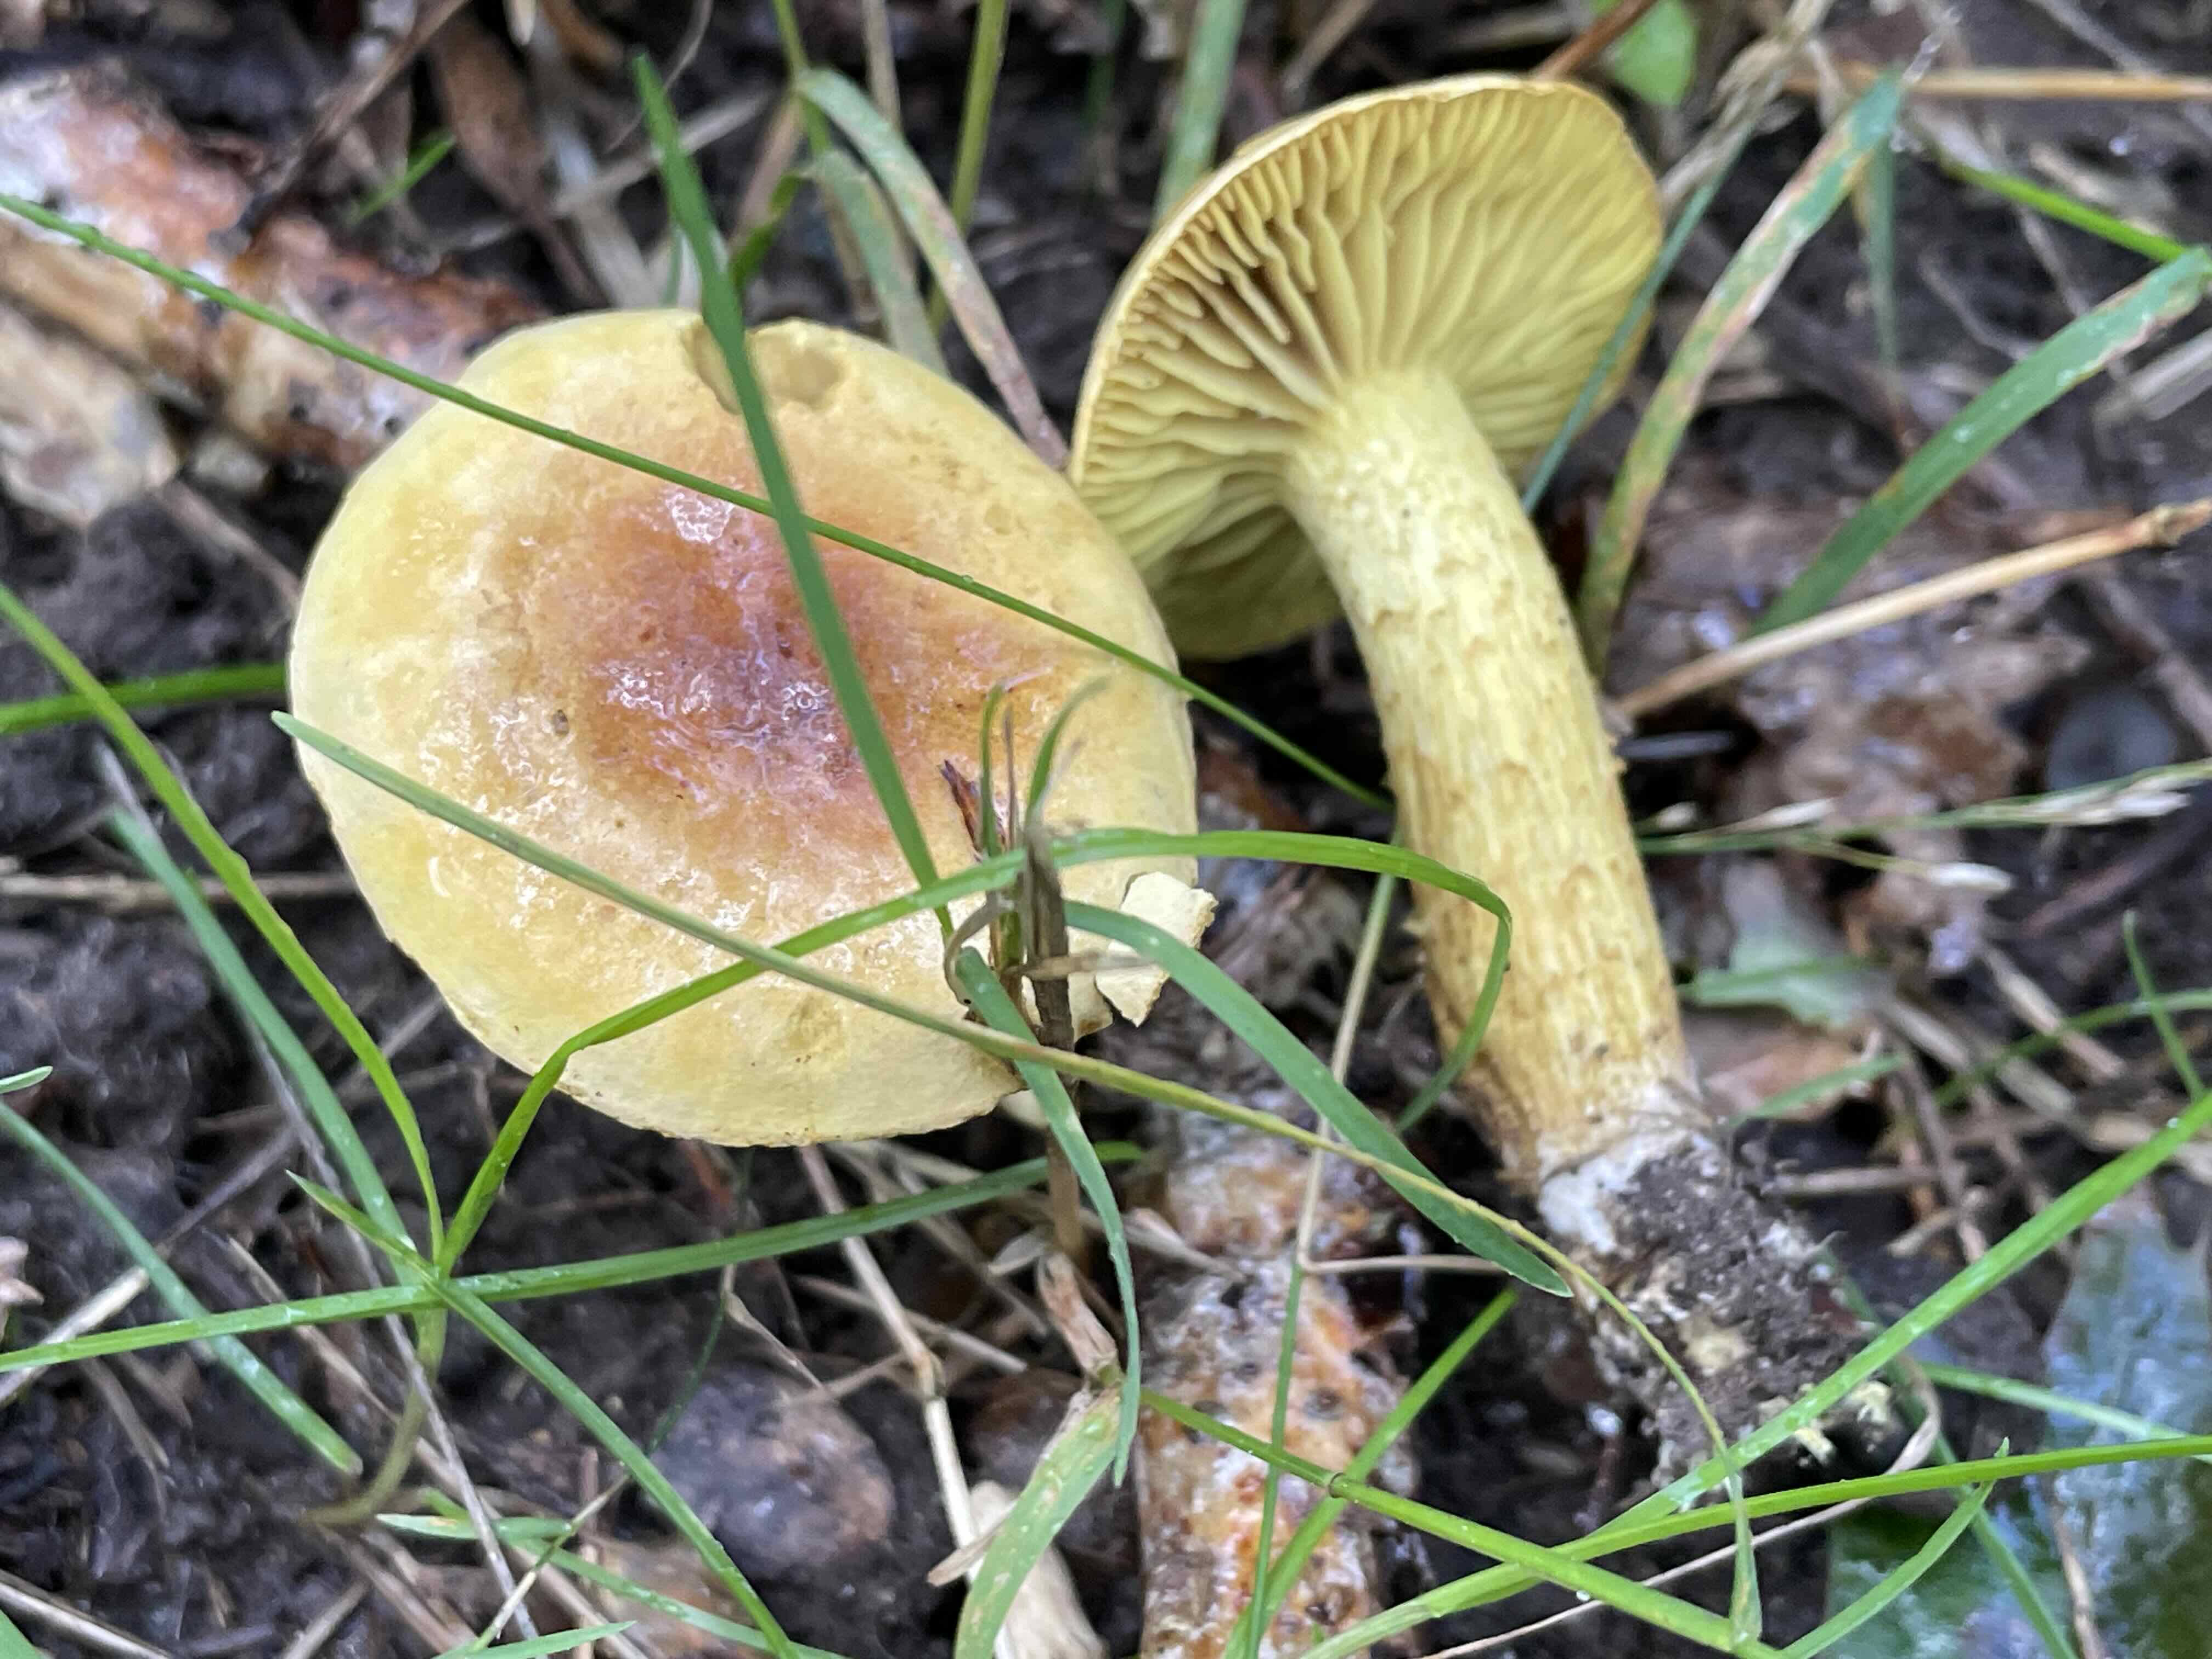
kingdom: Fungi
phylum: Basidiomycota
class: Agaricomycetes
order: Agaricales
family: Tricholomataceae
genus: Tricholoma
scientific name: Tricholoma sulphureum
